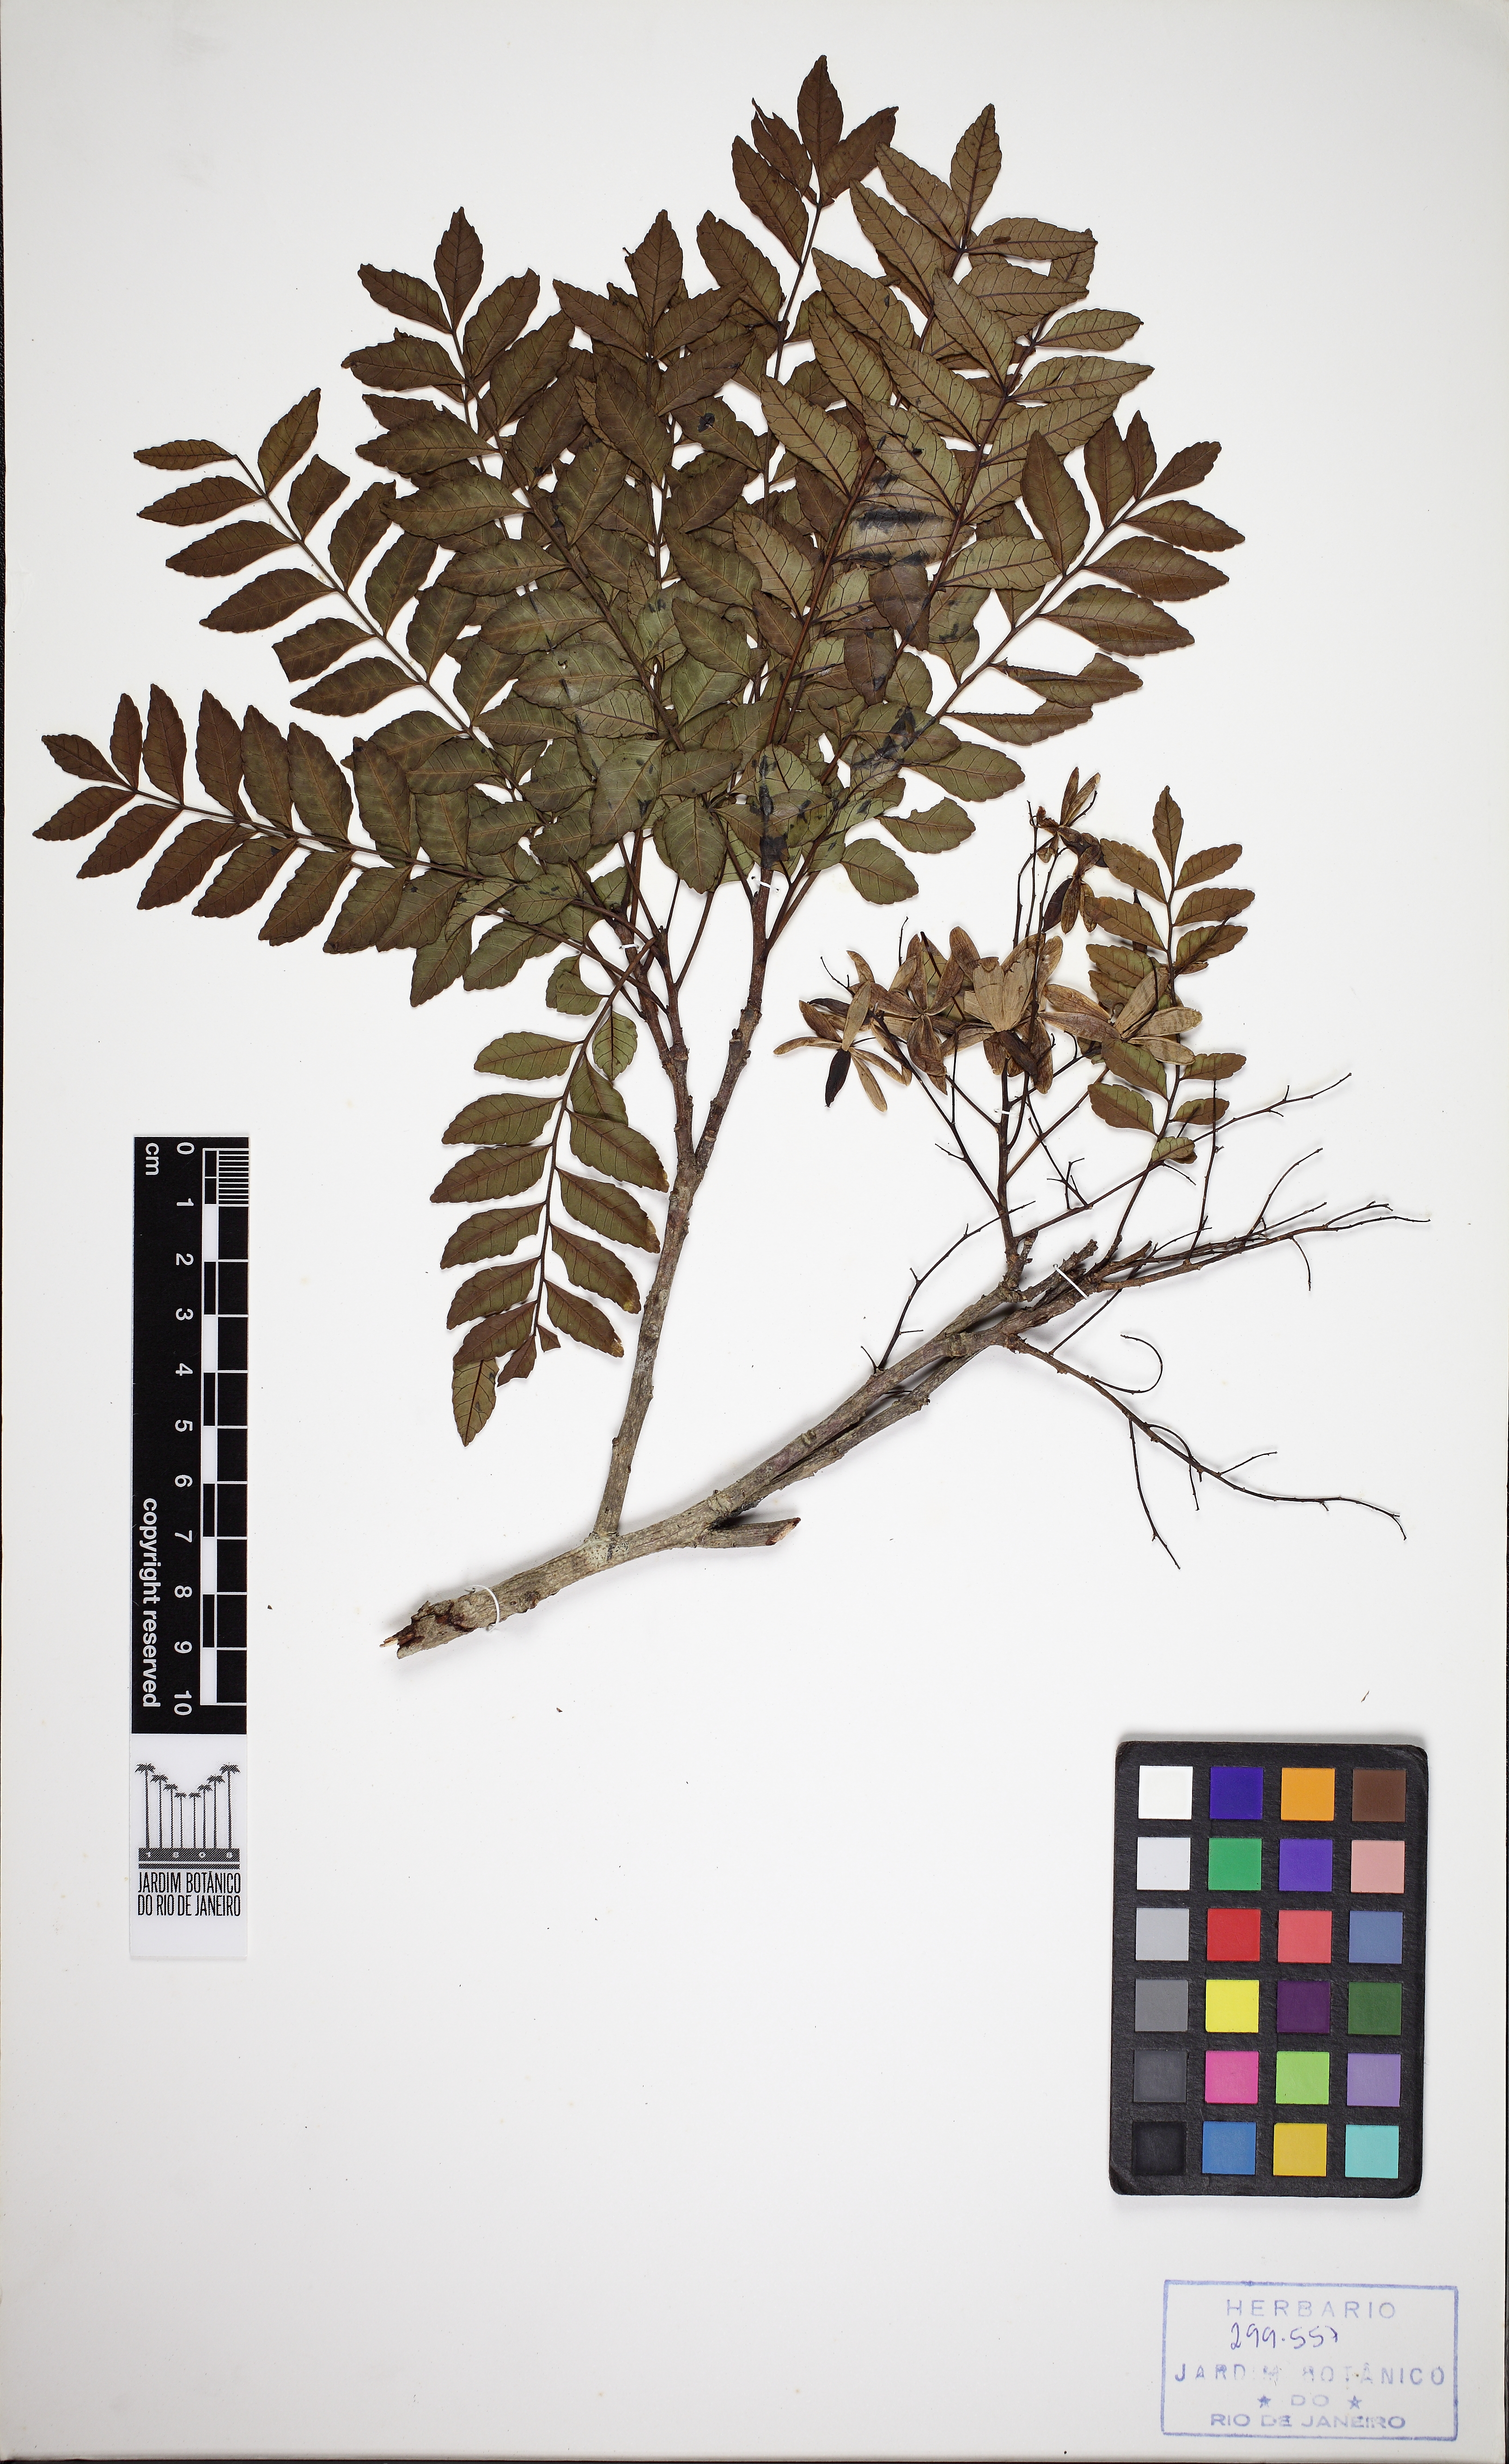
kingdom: Plantae
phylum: Tracheophyta
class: Magnoliopsida
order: Sapindales
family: Anacardiaceae
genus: Astronium
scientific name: Astronium glaziovii
